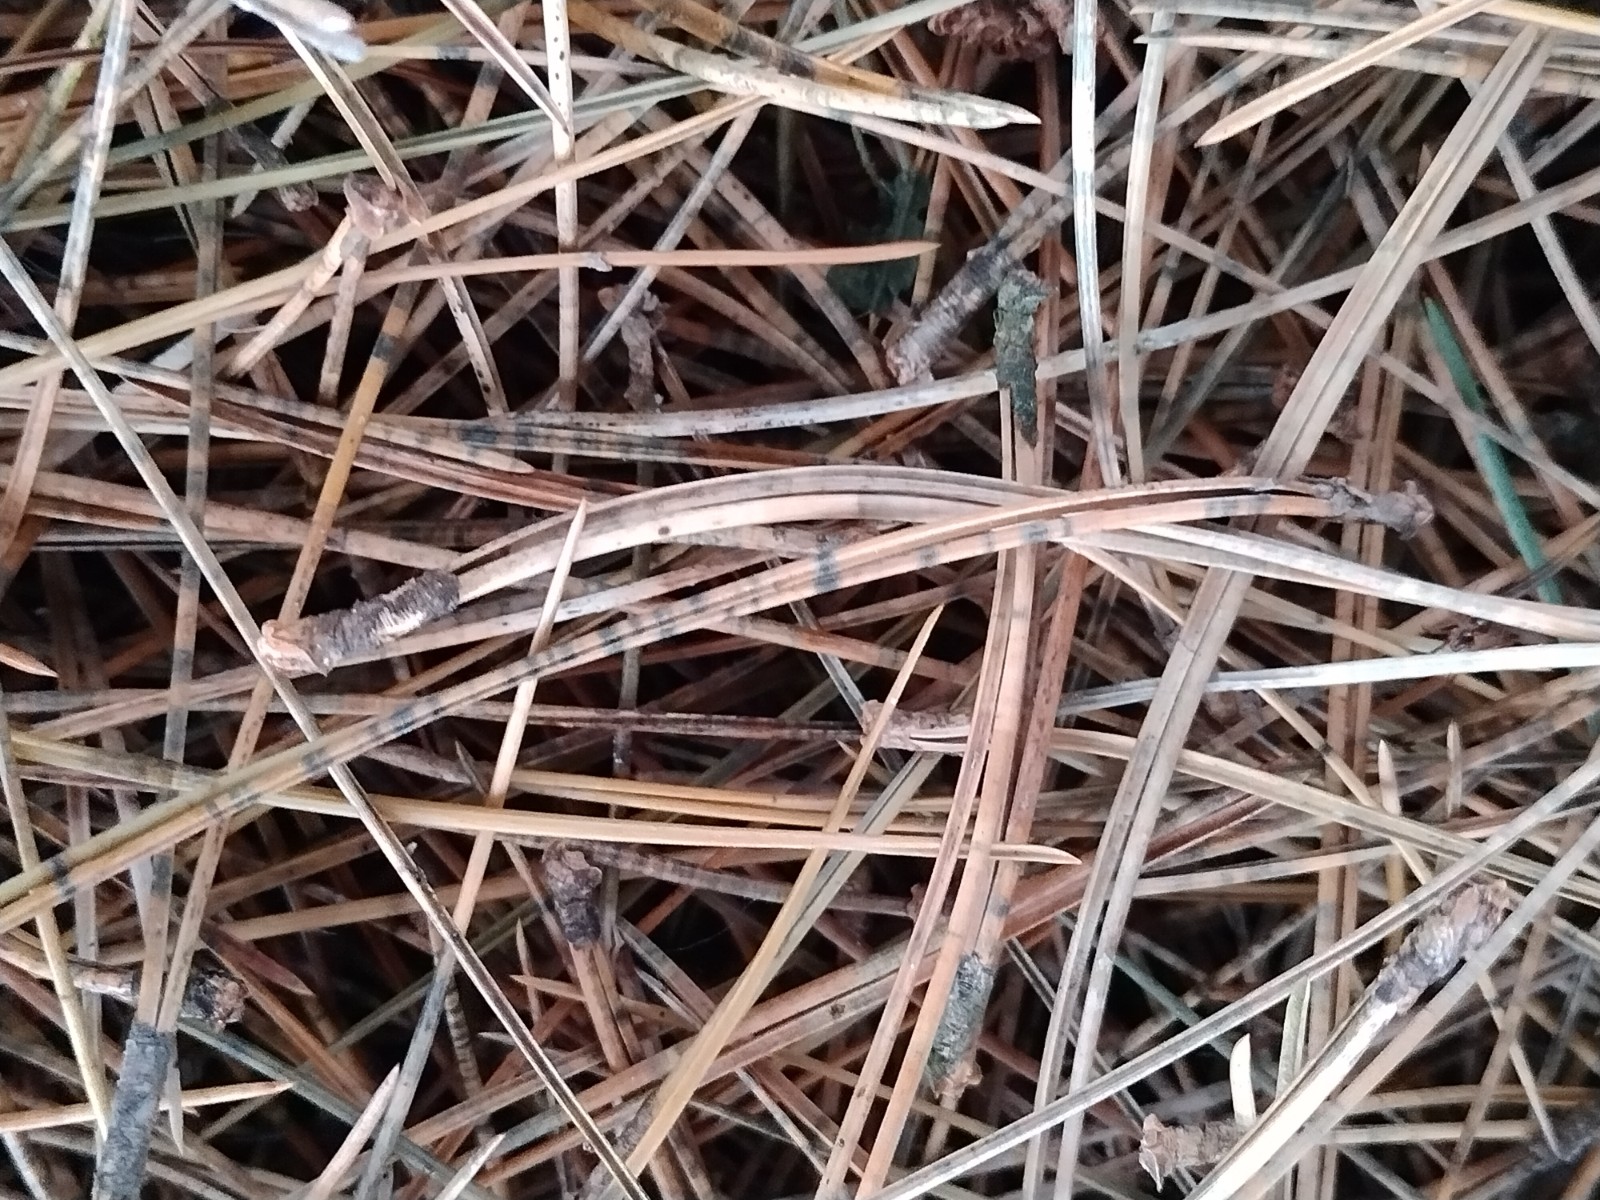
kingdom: Fungi
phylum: Ascomycota
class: Leotiomycetes
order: Rhytismatales
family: Rhytismataceae
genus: Lophodermium
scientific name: Lophodermium pinastri
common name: fyrre-fureplet
